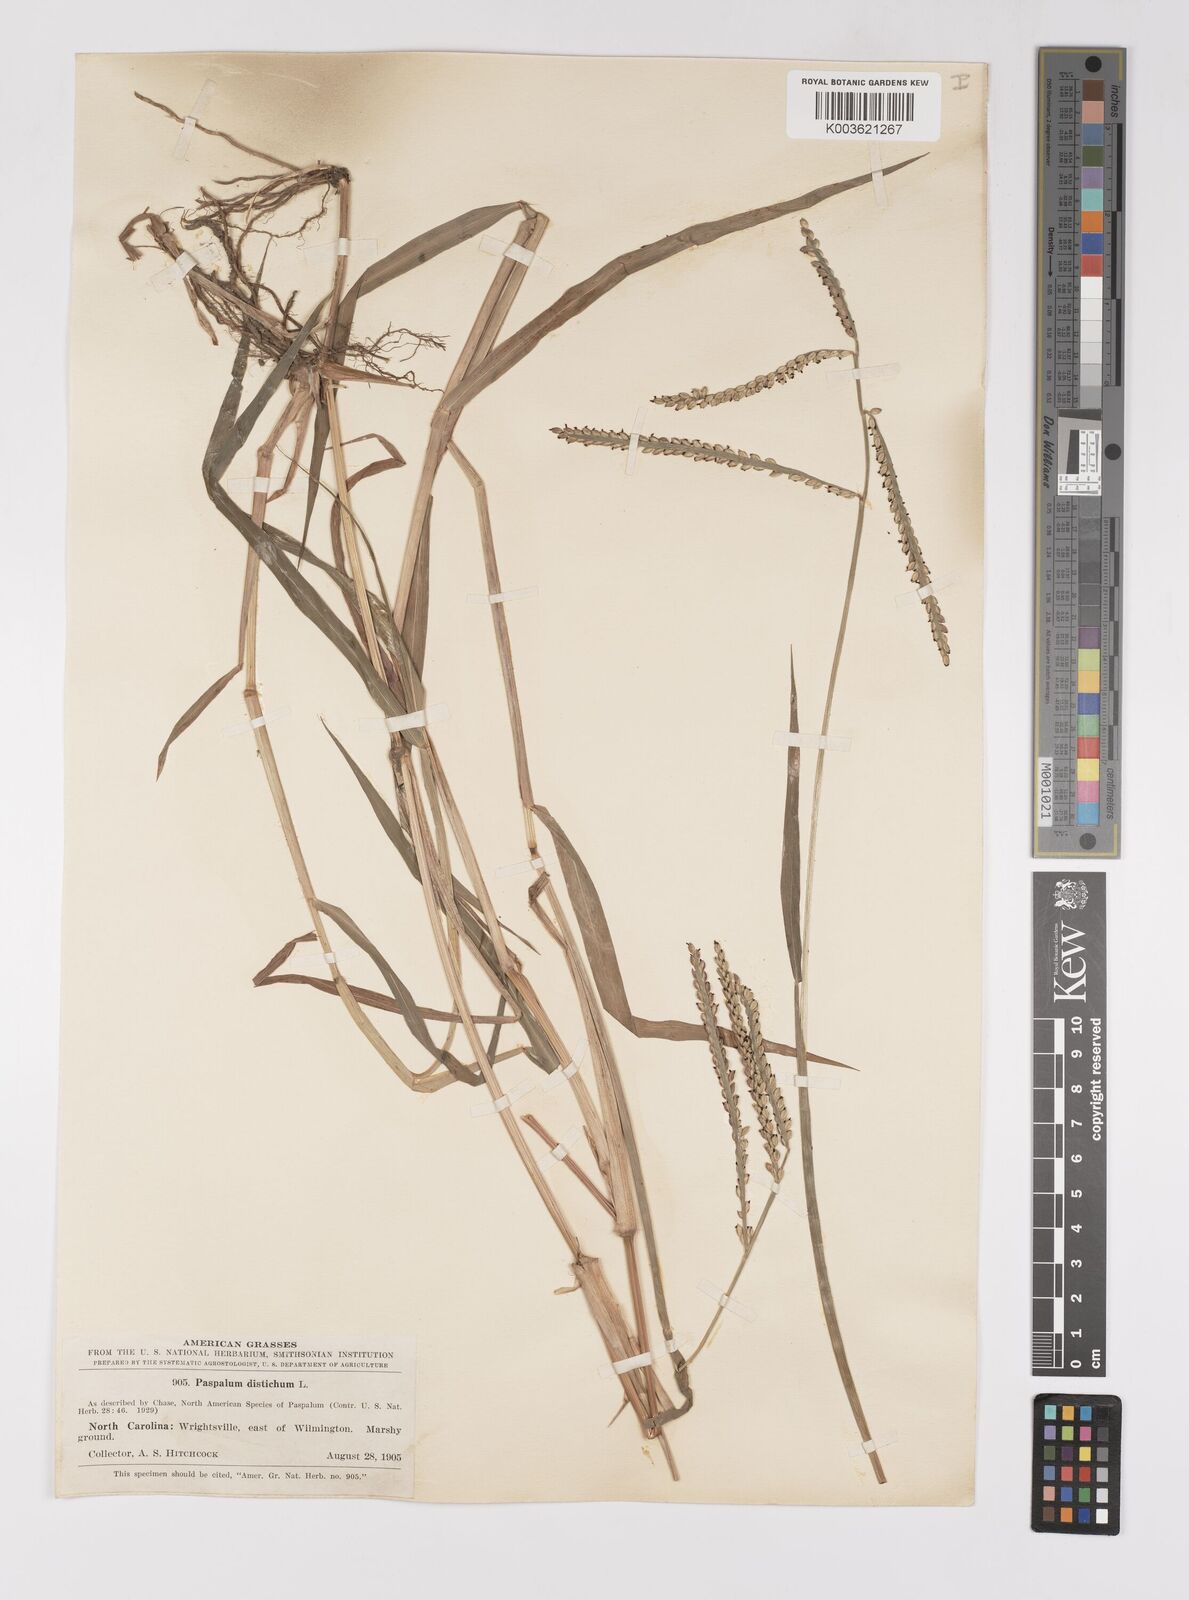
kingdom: Plantae
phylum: Tracheophyta
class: Liliopsida
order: Poales
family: Poaceae
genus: Paspalum
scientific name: Paspalum distichum
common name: Knotgrass
